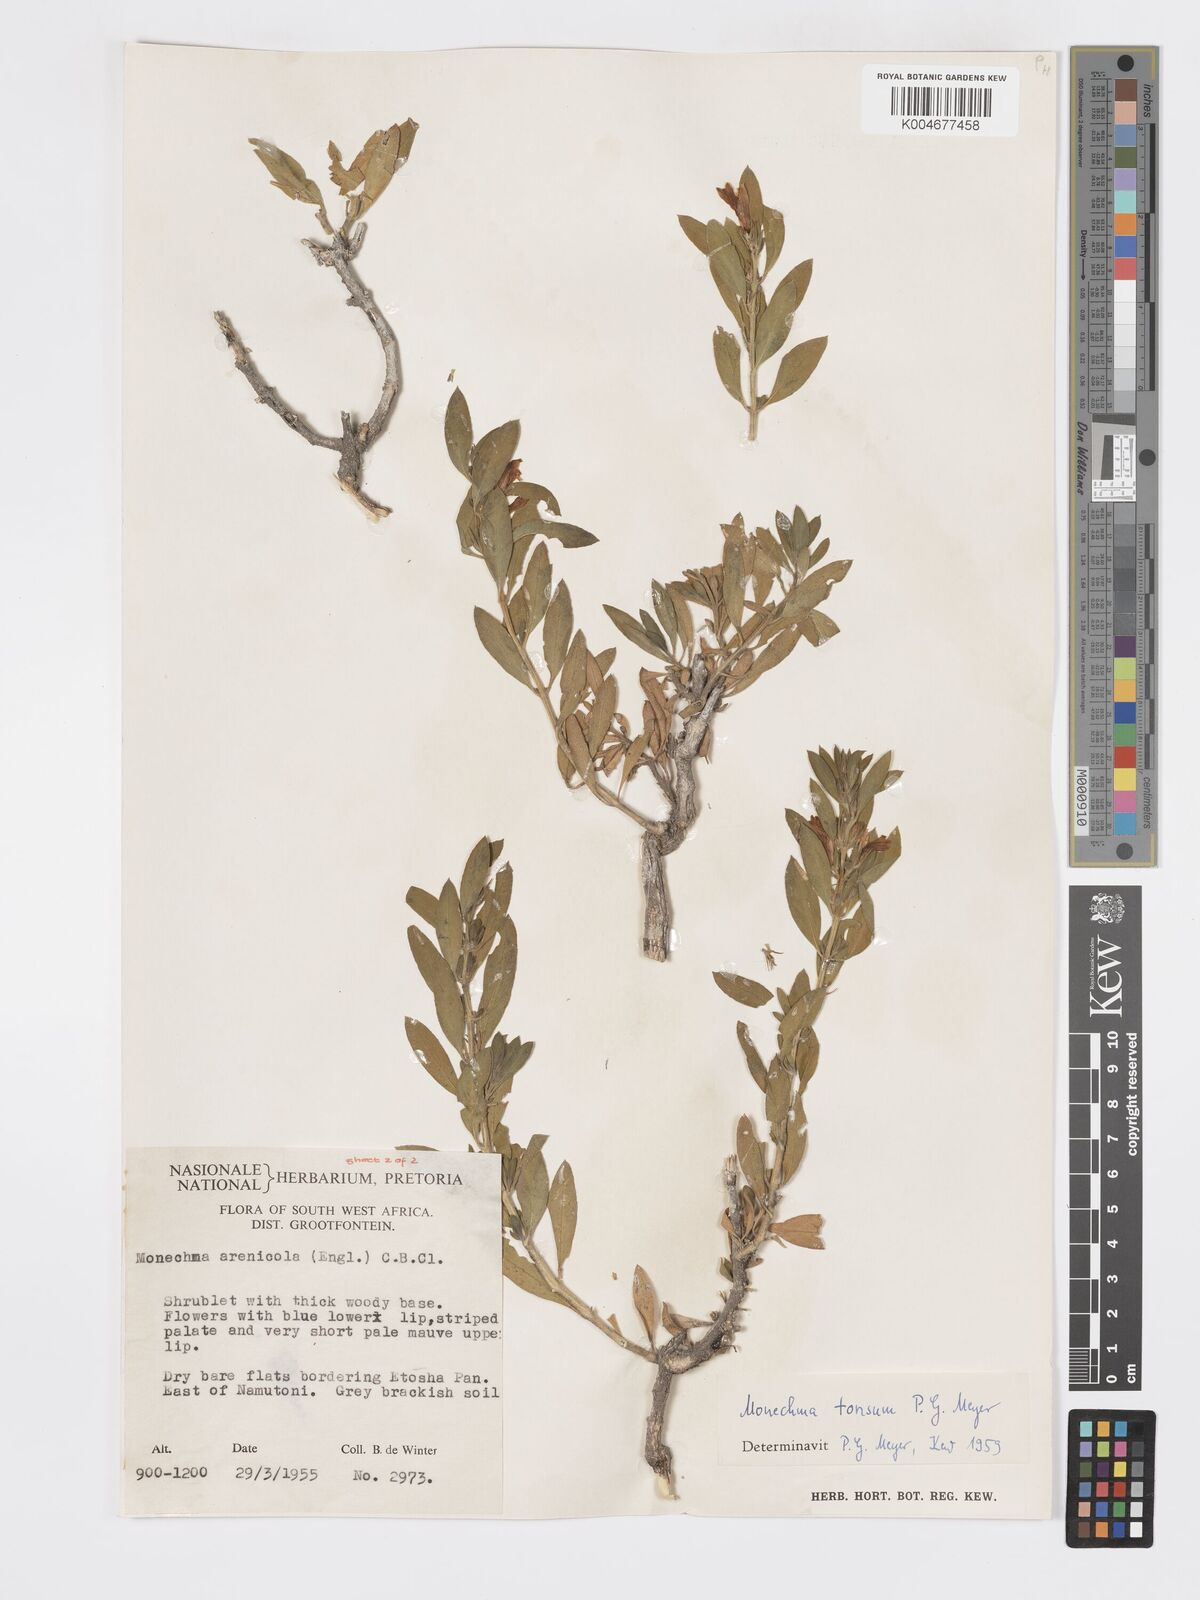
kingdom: Plantae
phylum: Tracheophyta
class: Magnoliopsida
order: Lamiales
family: Acanthaceae
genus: Pogonospermum
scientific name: Pogonospermum
